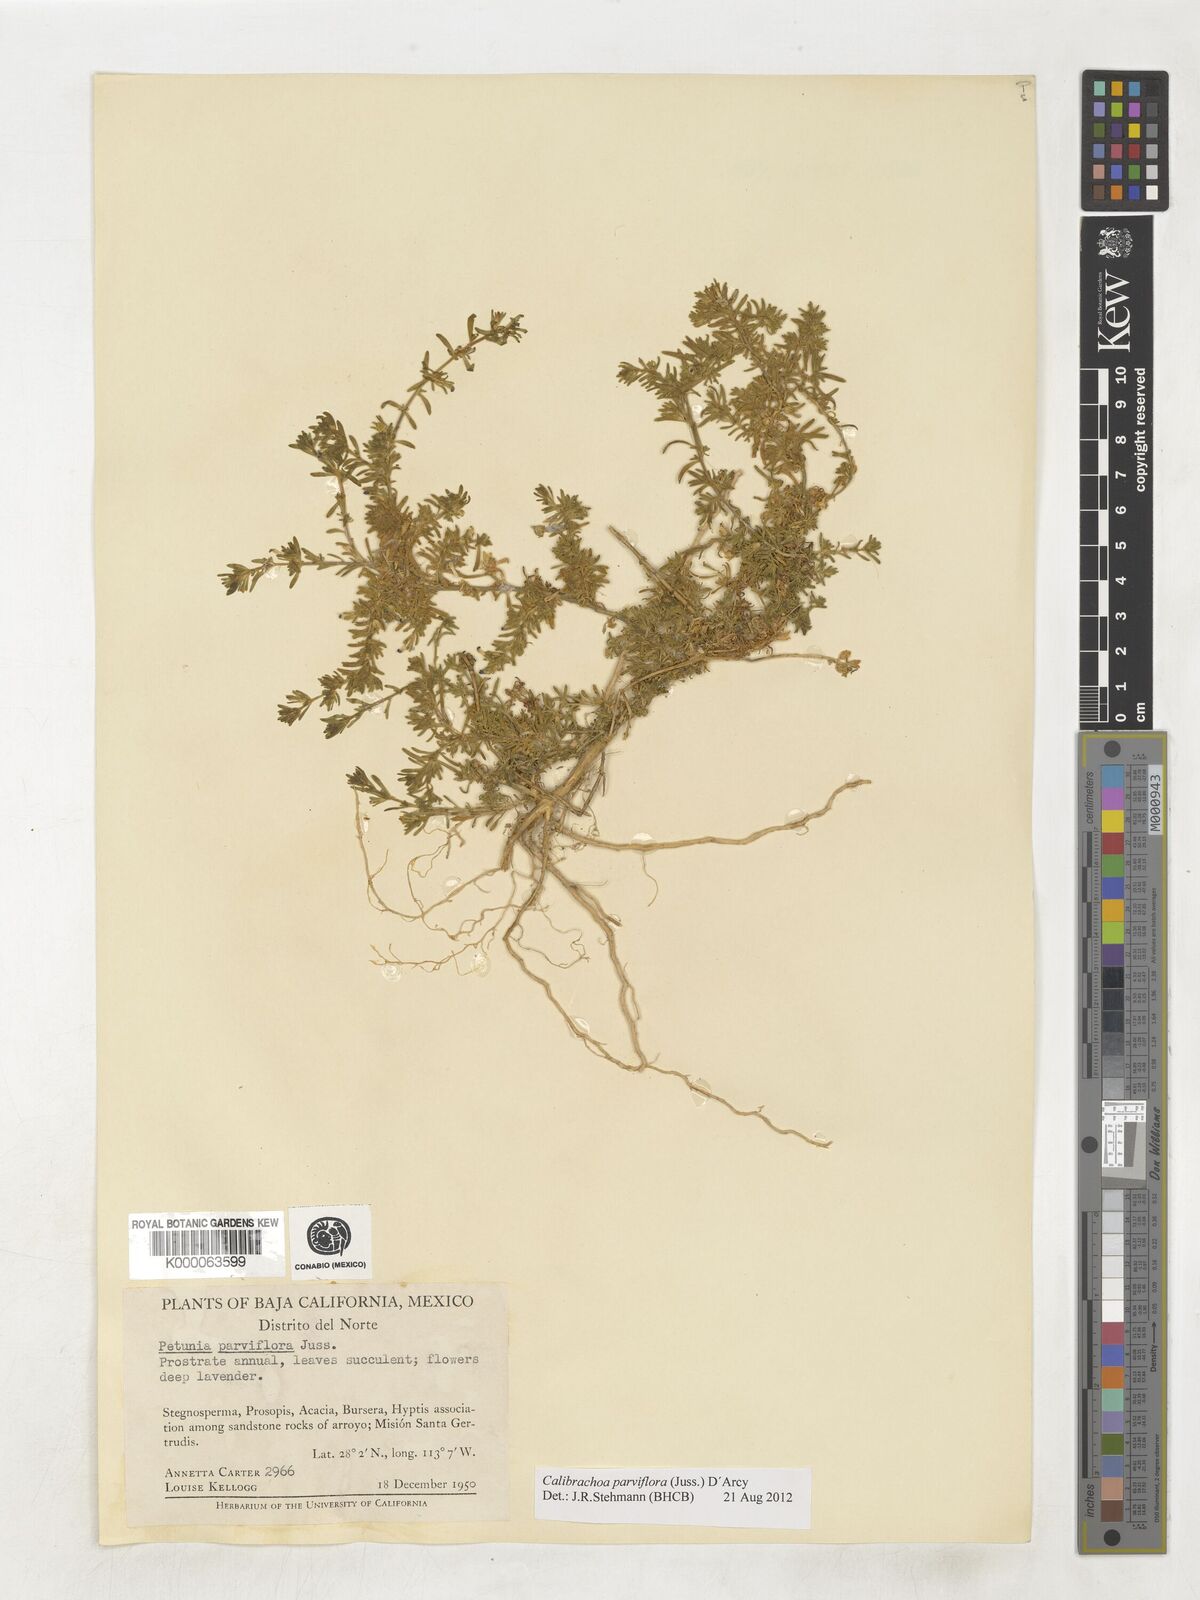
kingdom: Plantae
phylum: Tracheophyta
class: Magnoliopsida
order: Solanales
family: Solanaceae
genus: Calibrachoa
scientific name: Calibrachoa parviflora
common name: Seaside petunia
